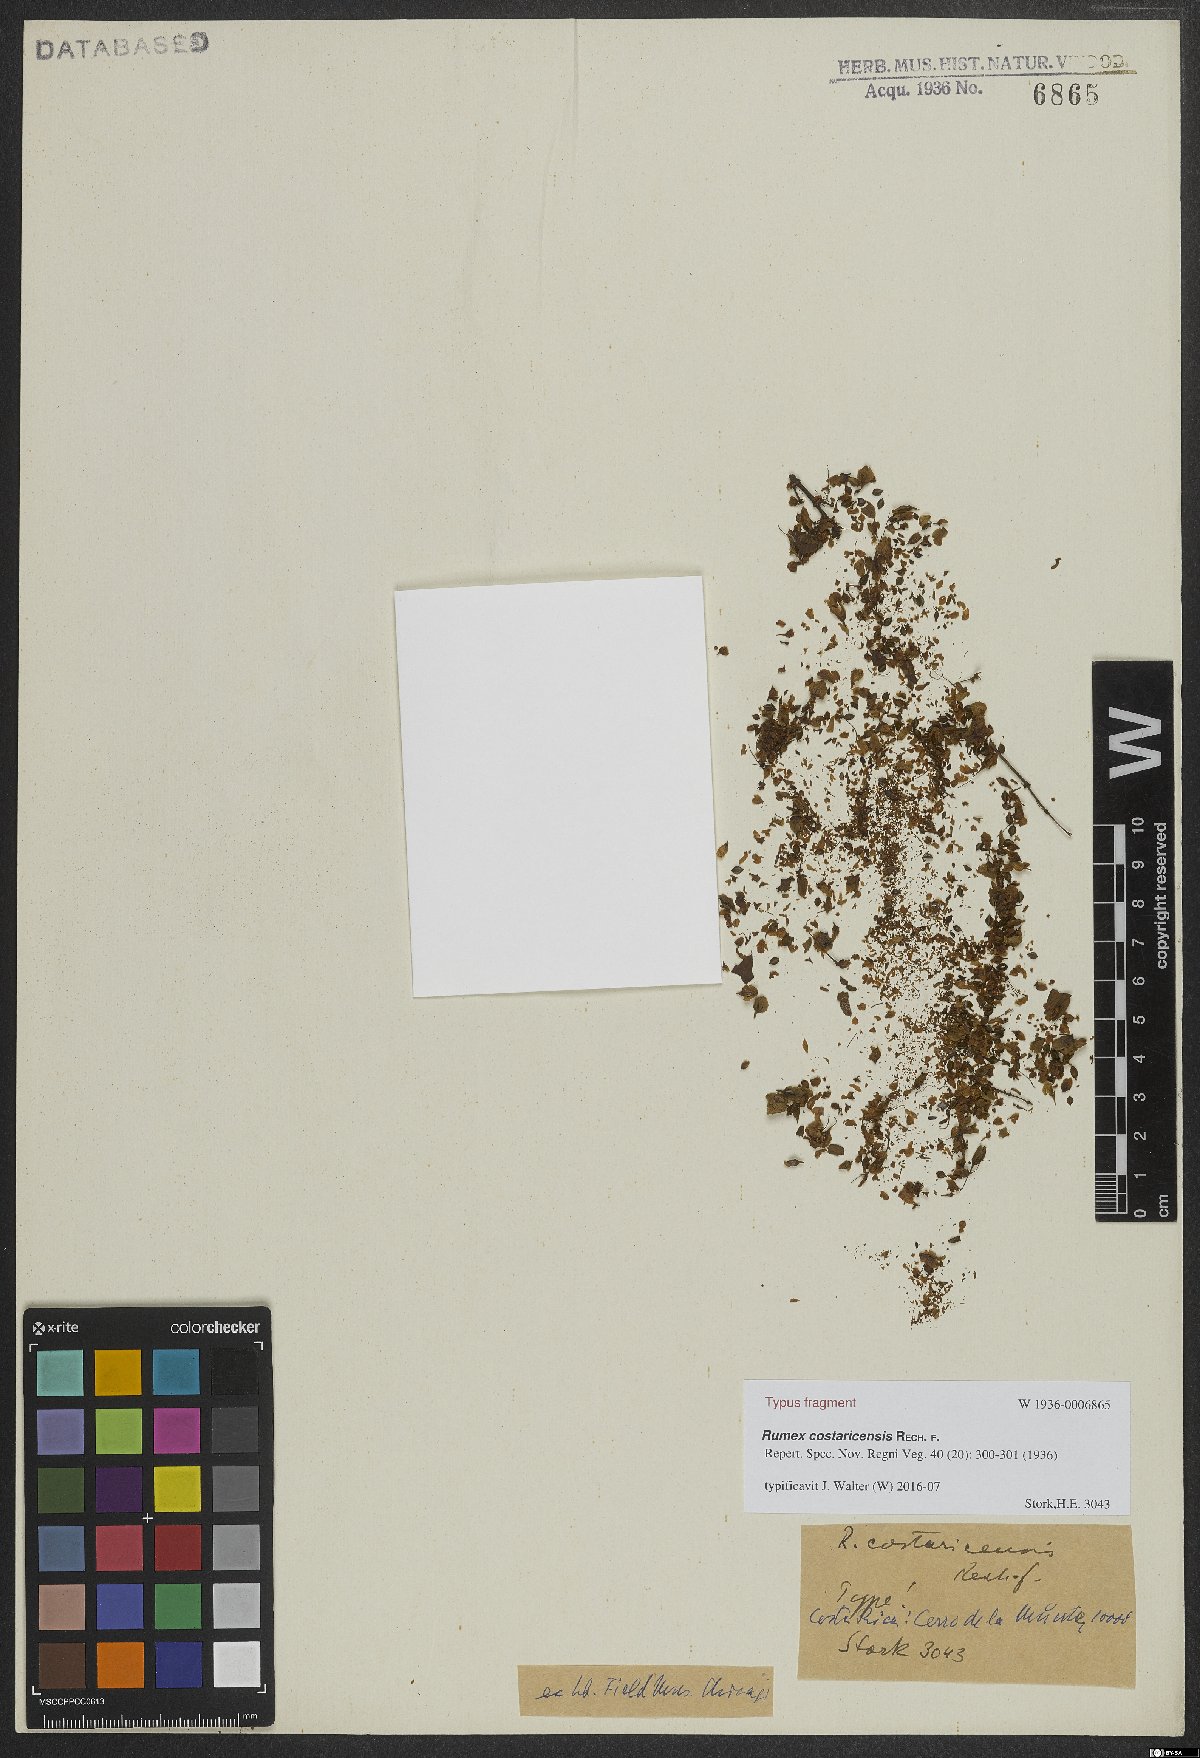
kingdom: Plantae
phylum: Tracheophyta
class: Magnoliopsida
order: Caryophyllales
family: Polygonaceae
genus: Rumex
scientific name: Rumex costaricensis
